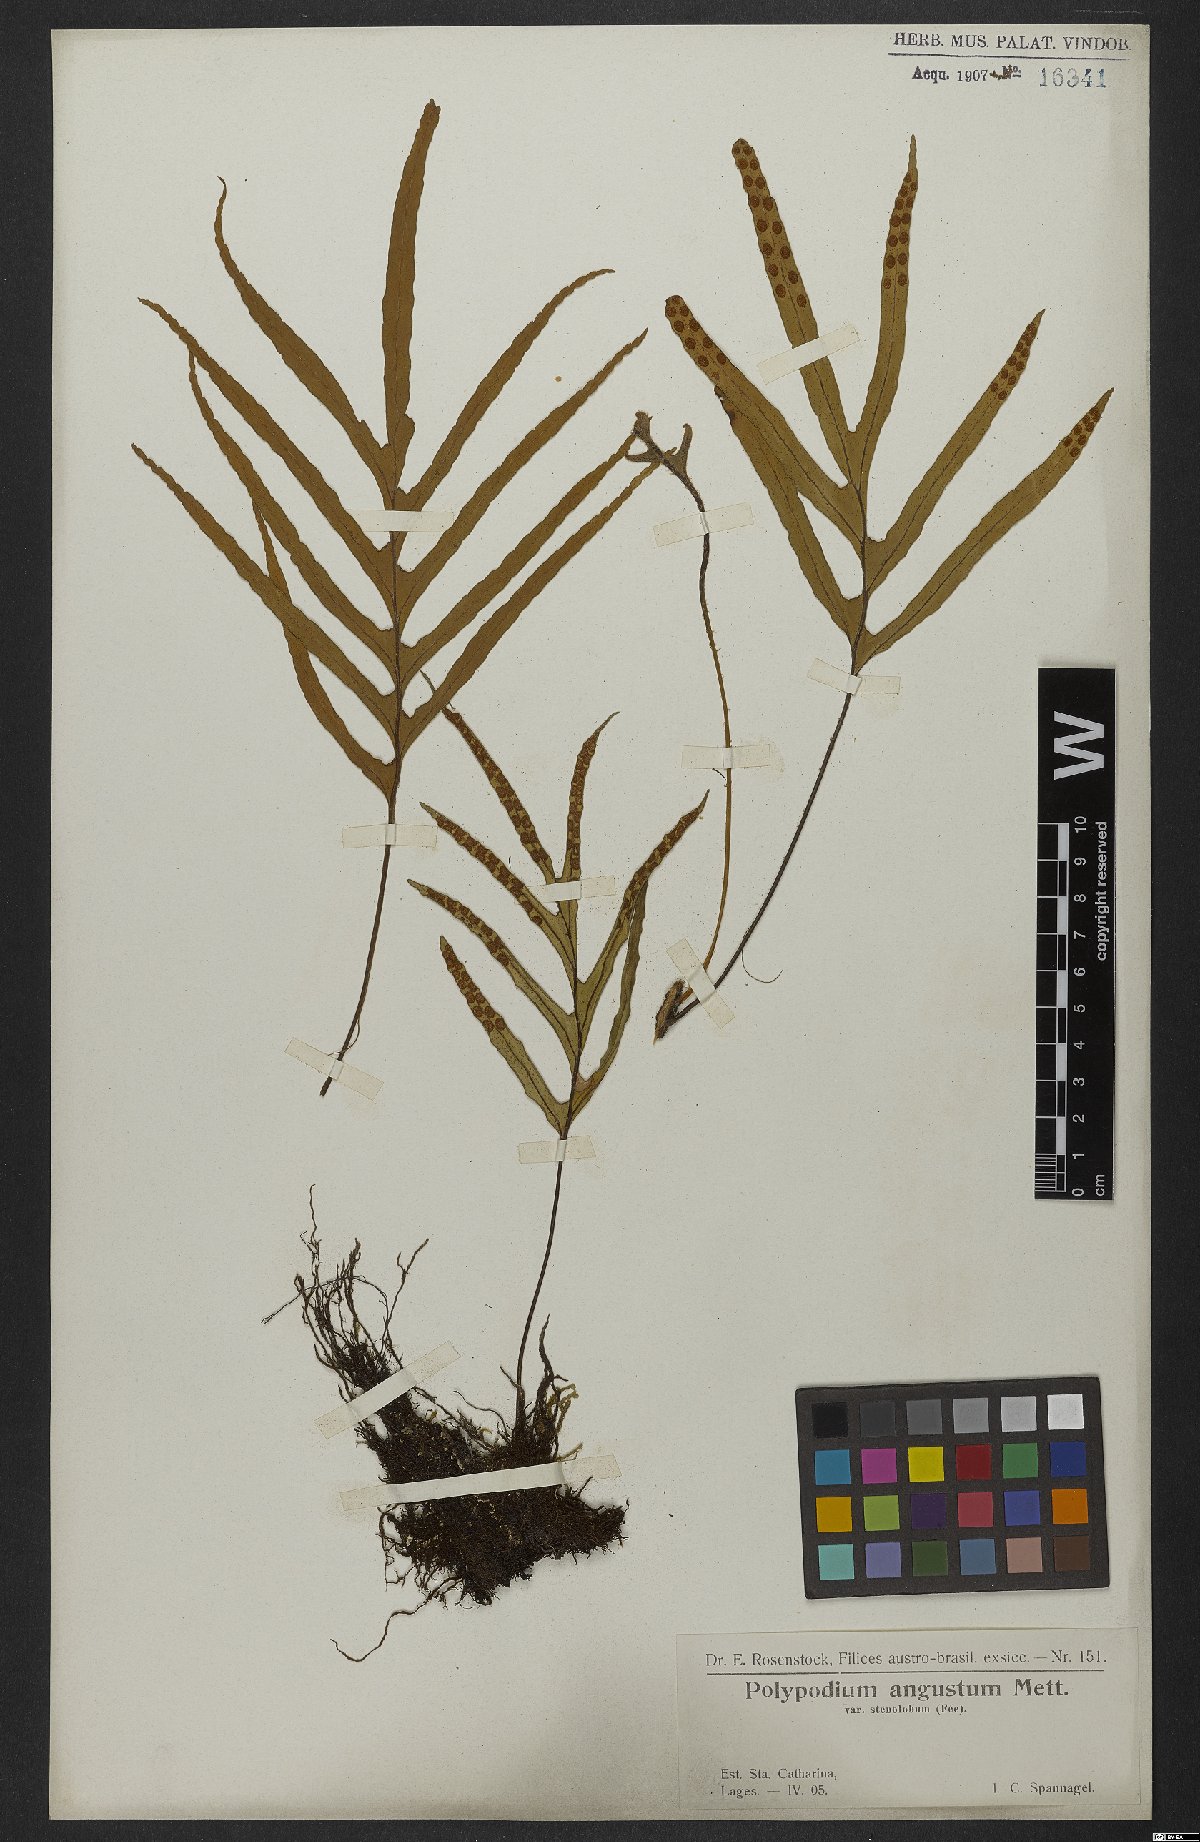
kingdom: Plantae
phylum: Tracheophyta
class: Polypodiopsida
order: Polypodiales
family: Polypodiaceae
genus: Pleopeltis
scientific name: Pleopeltis angusta
